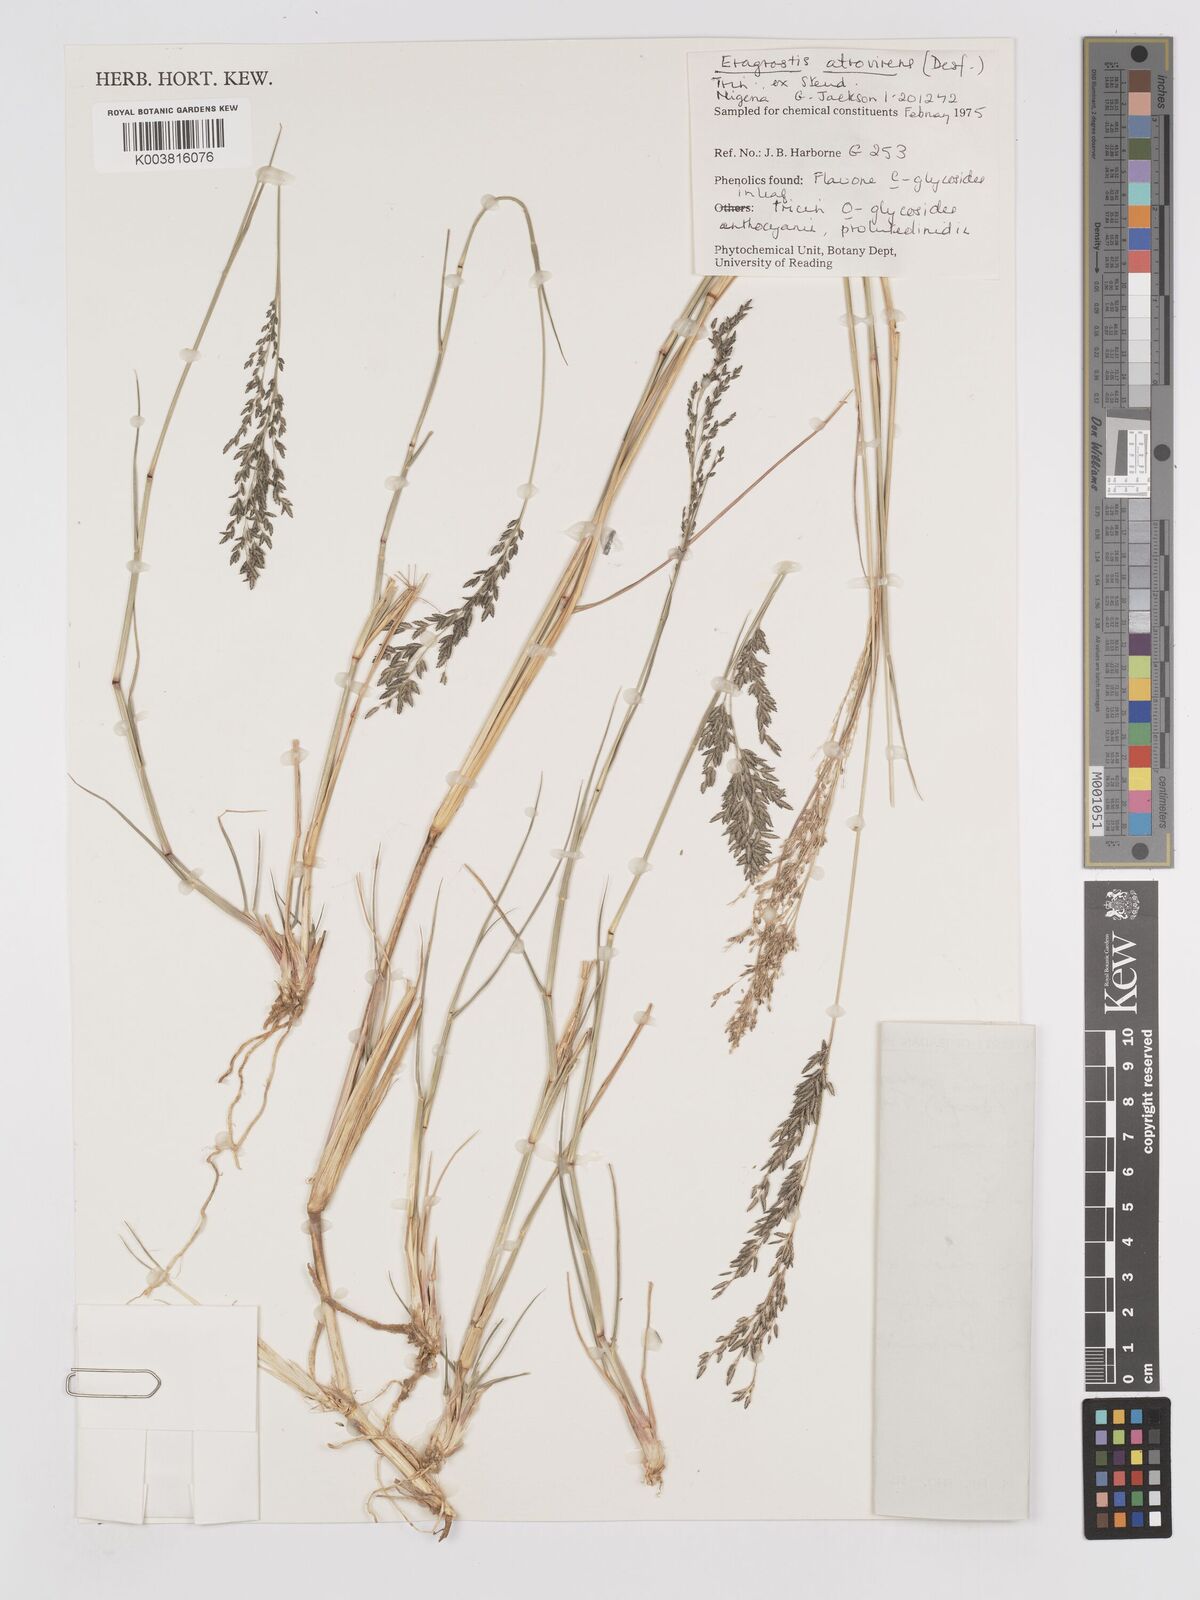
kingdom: Plantae
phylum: Tracheophyta
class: Liliopsida
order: Poales
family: Poaceae
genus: Eragrostis
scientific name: Eragrostis atrovirens
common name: Thalia lovegrass
